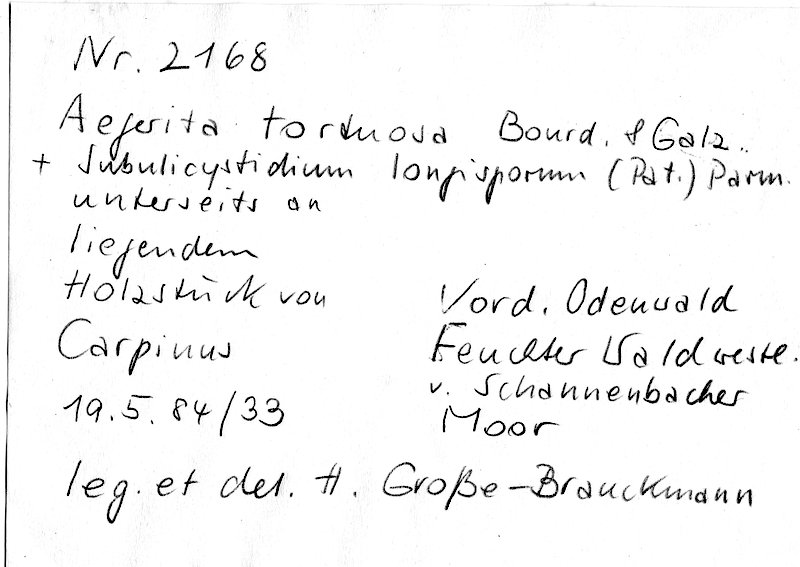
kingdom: Fungi
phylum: Basidiomycota
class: Agaricomycetes
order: Trechisporales
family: Hydnodontaceae
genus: Subulicystidium
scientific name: Subulicystidium longisporum
